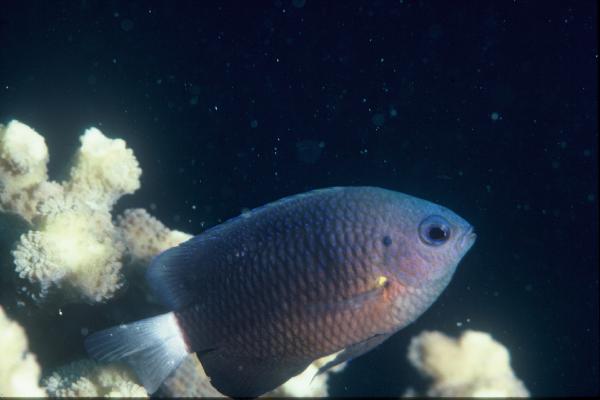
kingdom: Animalia
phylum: Chordata
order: Perciformes
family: Pomacentridae
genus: Pomacentrus
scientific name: Pomacentrus albicaudatus
